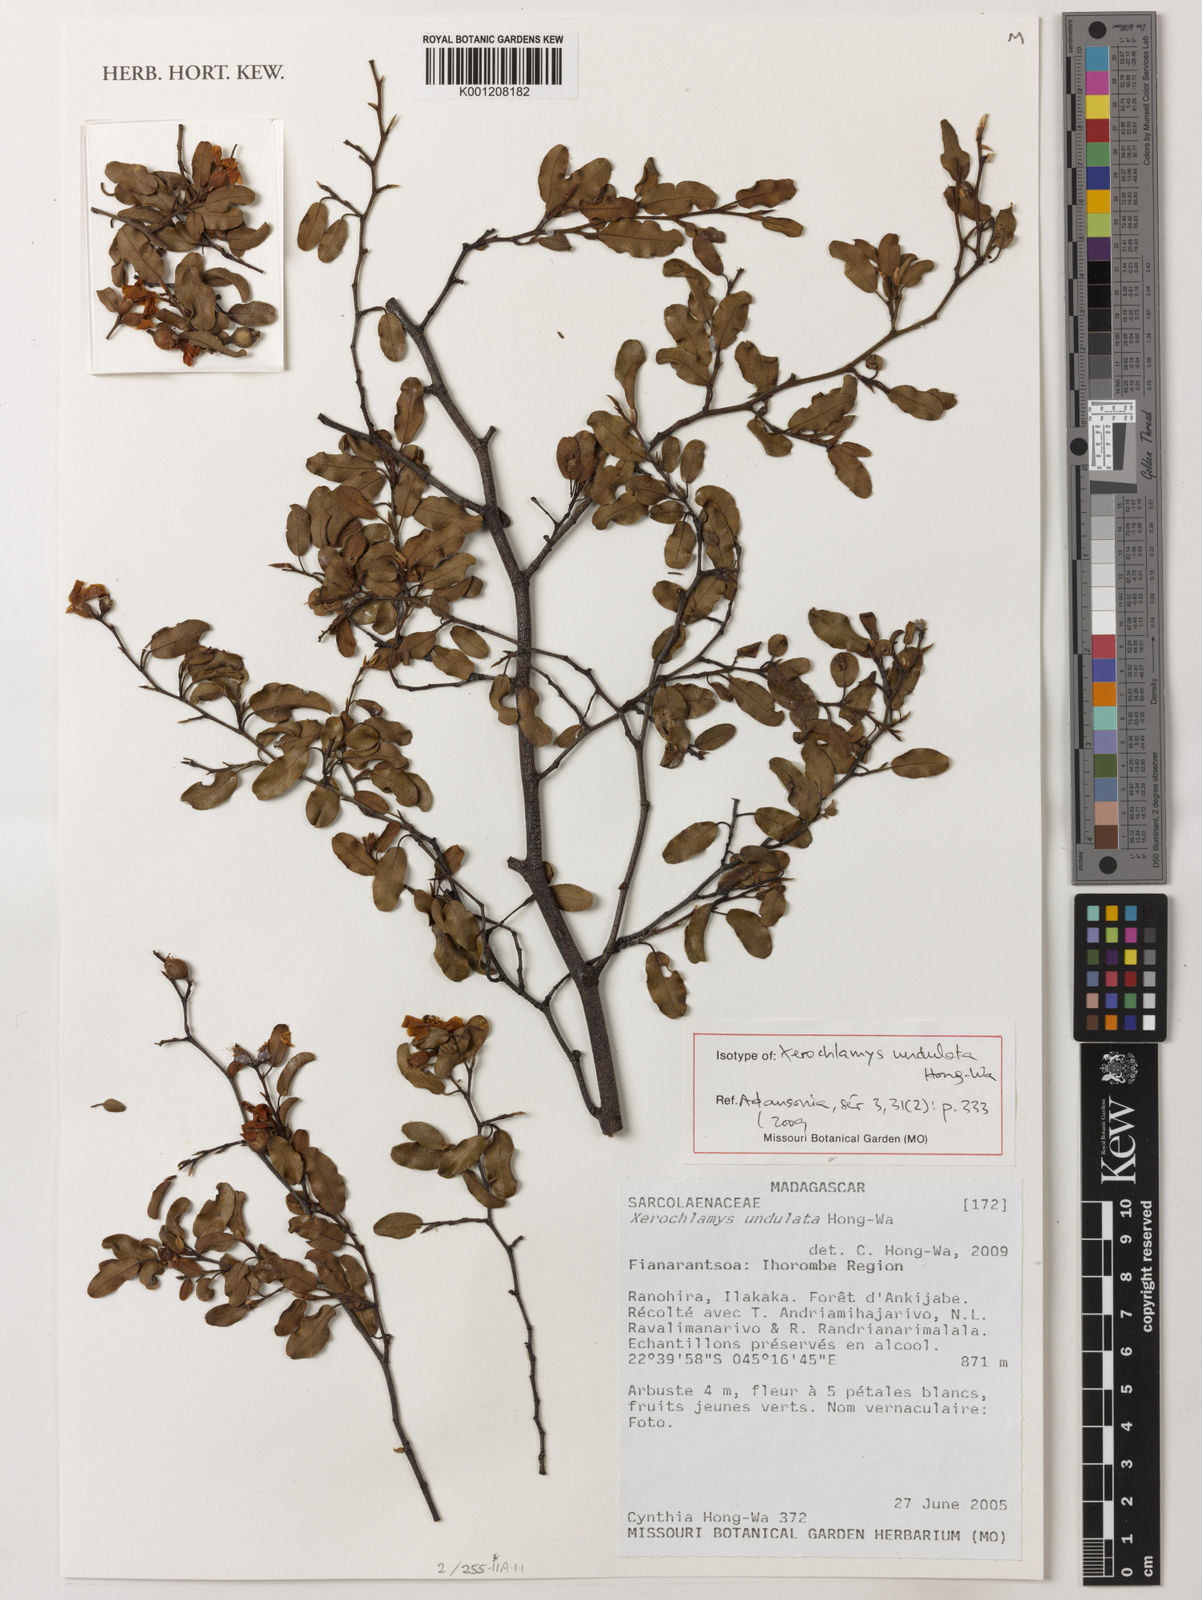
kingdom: Plantae
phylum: Tracheophyta
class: Magnoliopsida
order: Malvales
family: Sarcolaenaceae
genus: Xerochlamys
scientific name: Xerochlamys undulata
